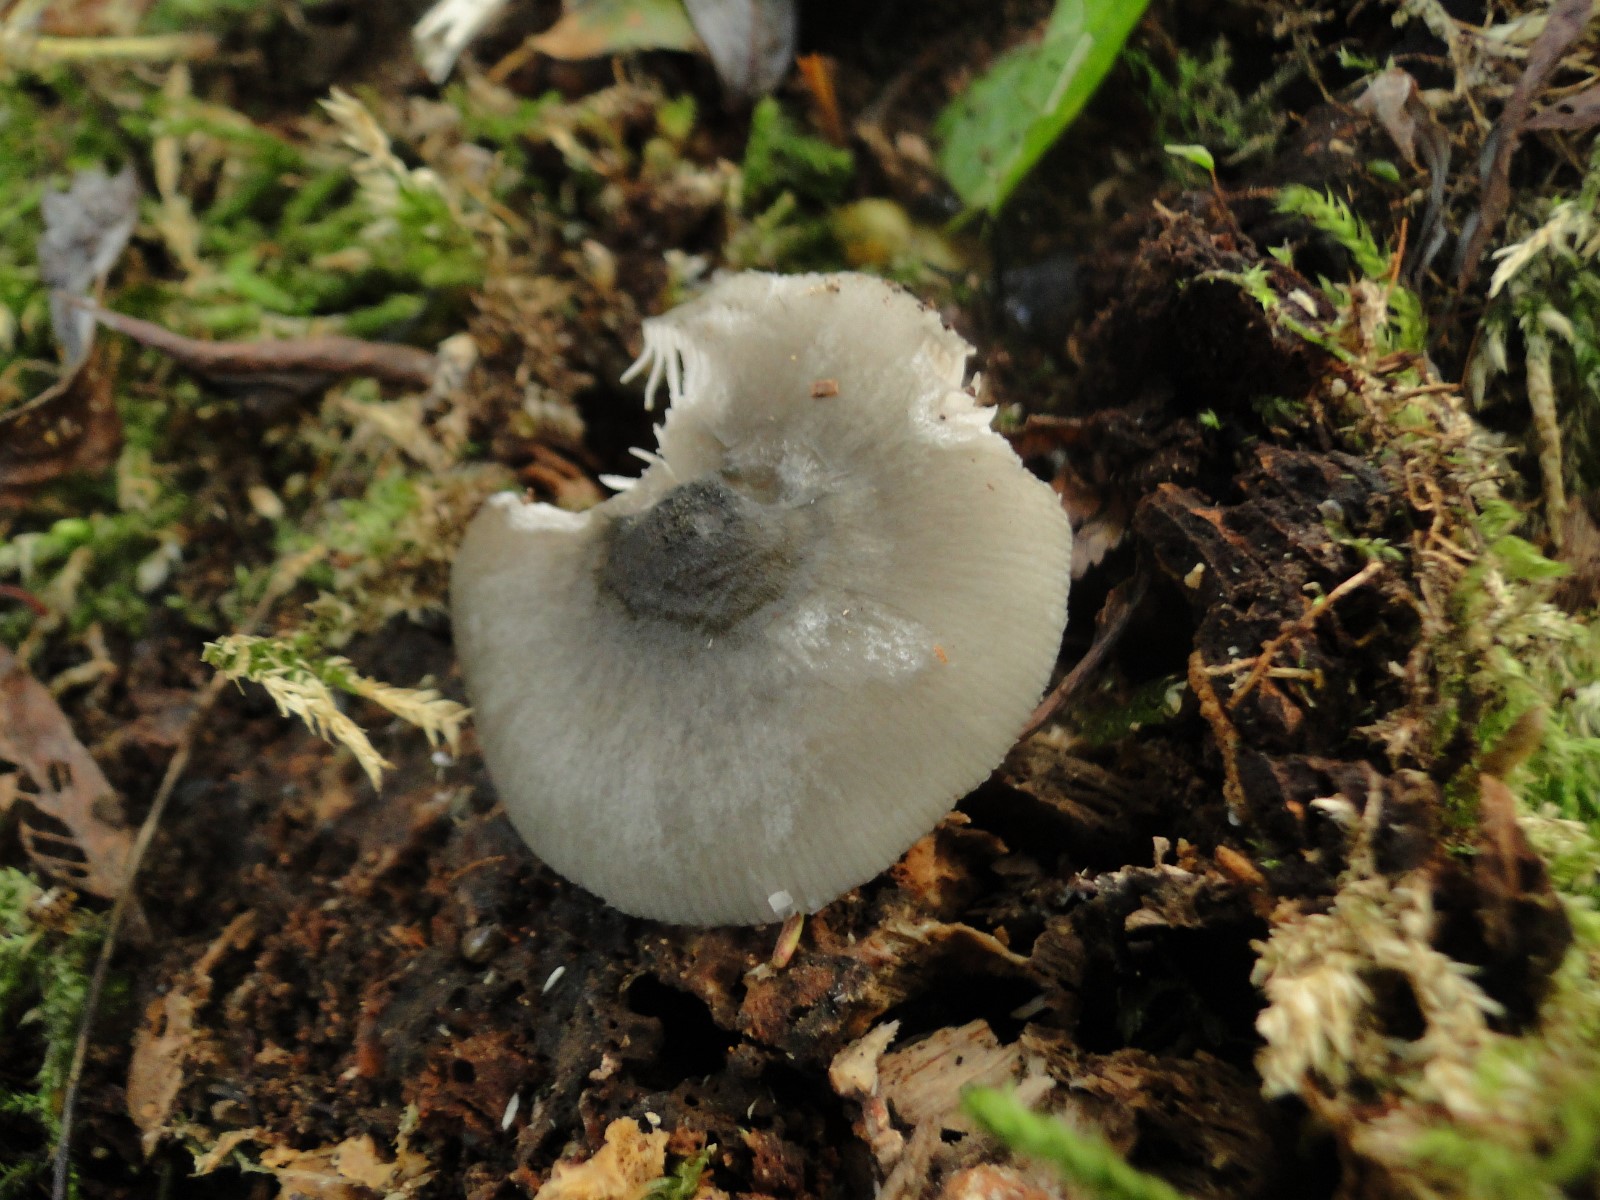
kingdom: Fungi
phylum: Basidiomycota
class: Agaricomycetes
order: Agaricales
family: Pluteaceae
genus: Pluteus
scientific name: Pluteus salicinus
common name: stiv skærmhat
